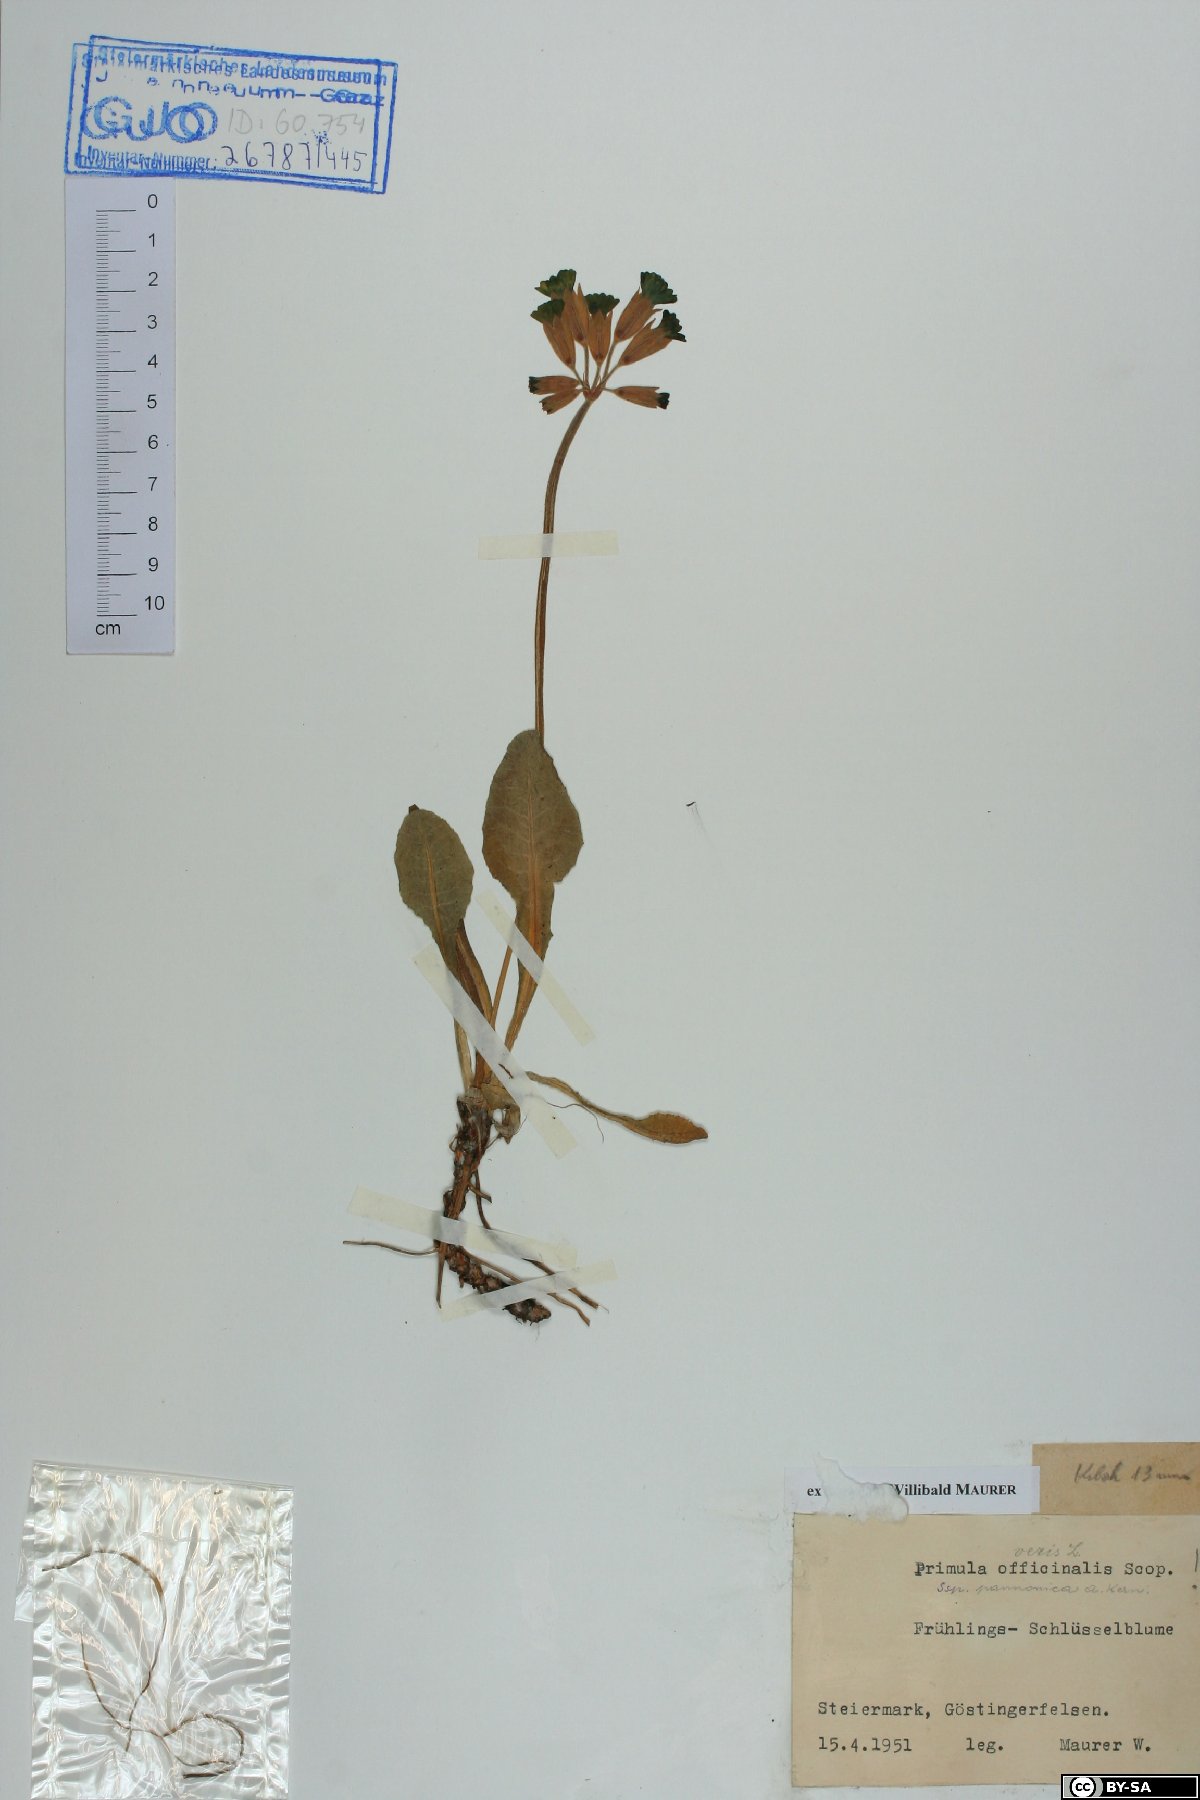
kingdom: Plantae
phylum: Tracheophyta
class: Magnoliopsida
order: Ericales
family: Primulaceae
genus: Primula
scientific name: Primula veris
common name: Cowslip
